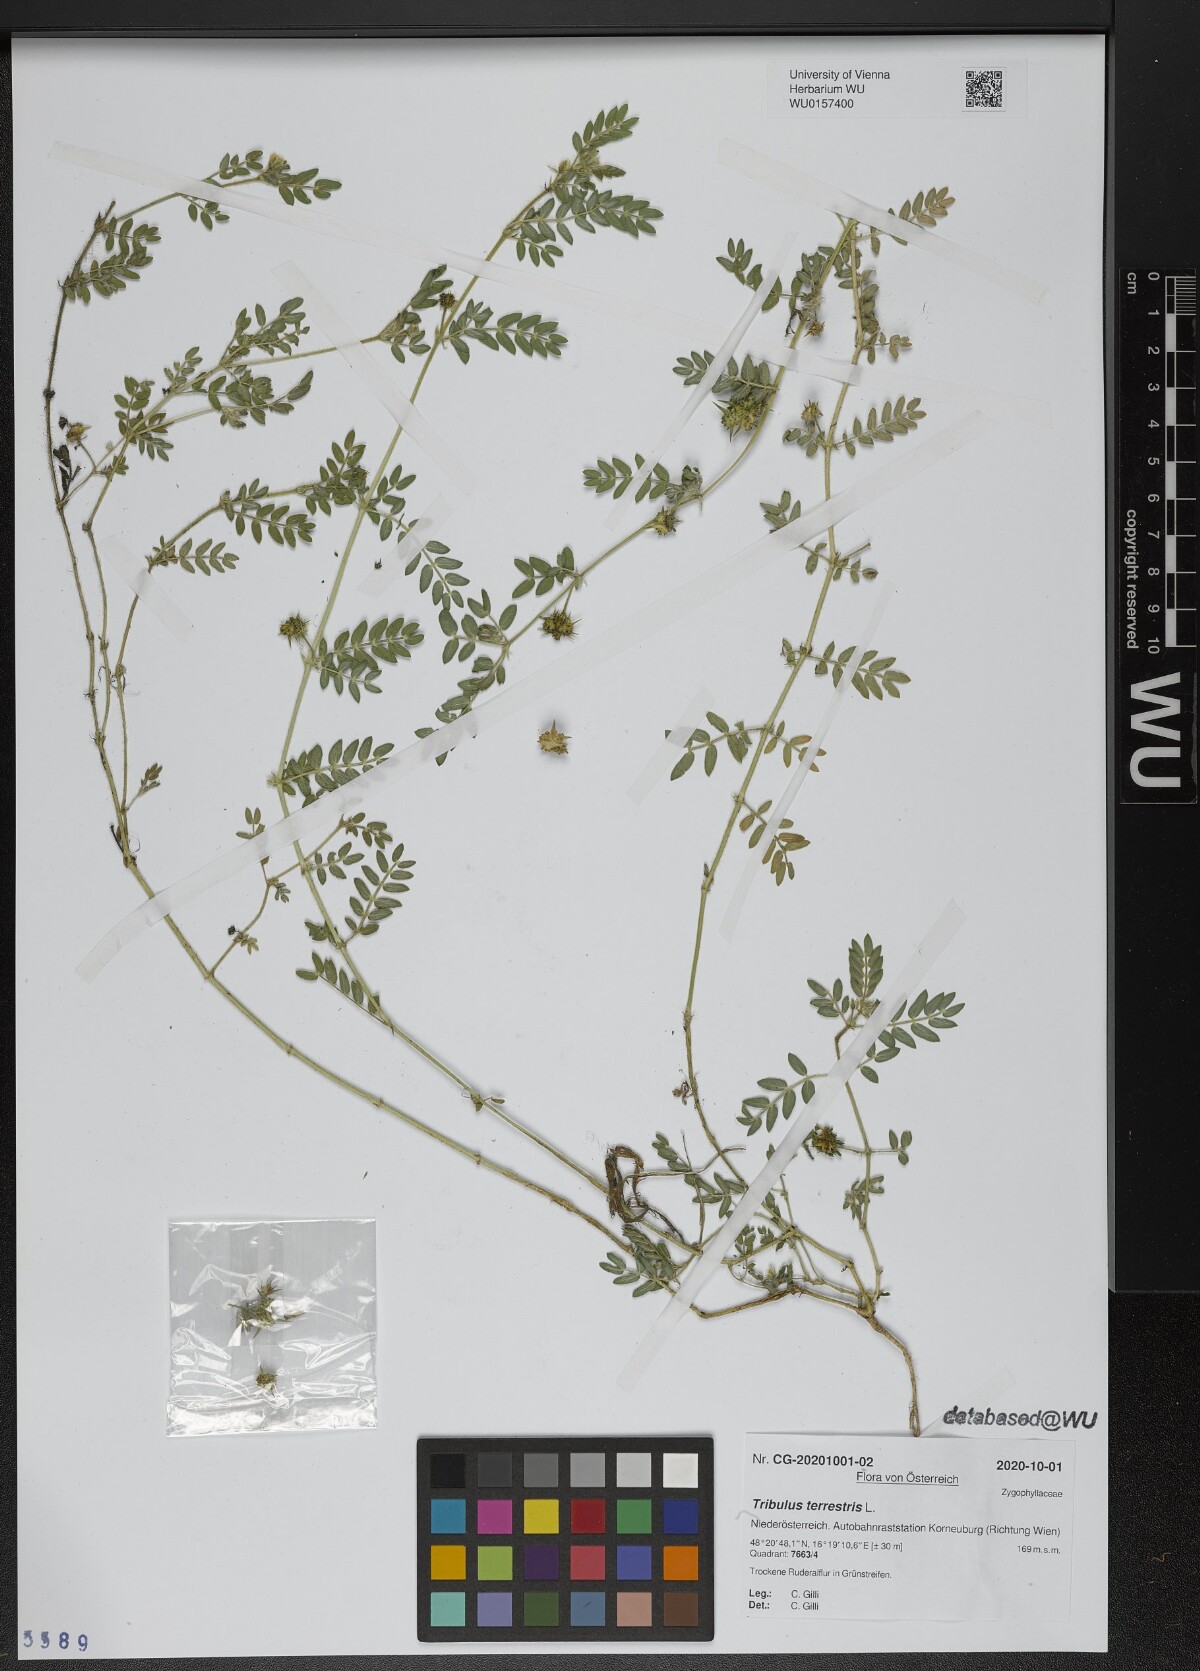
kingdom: Plantae
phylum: Tracheophyta
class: Magnoliopsida
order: Zygophyllales
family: Zygophyllaceae
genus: Tribulus
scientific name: Tribulus terrestris
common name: Puncturevine
